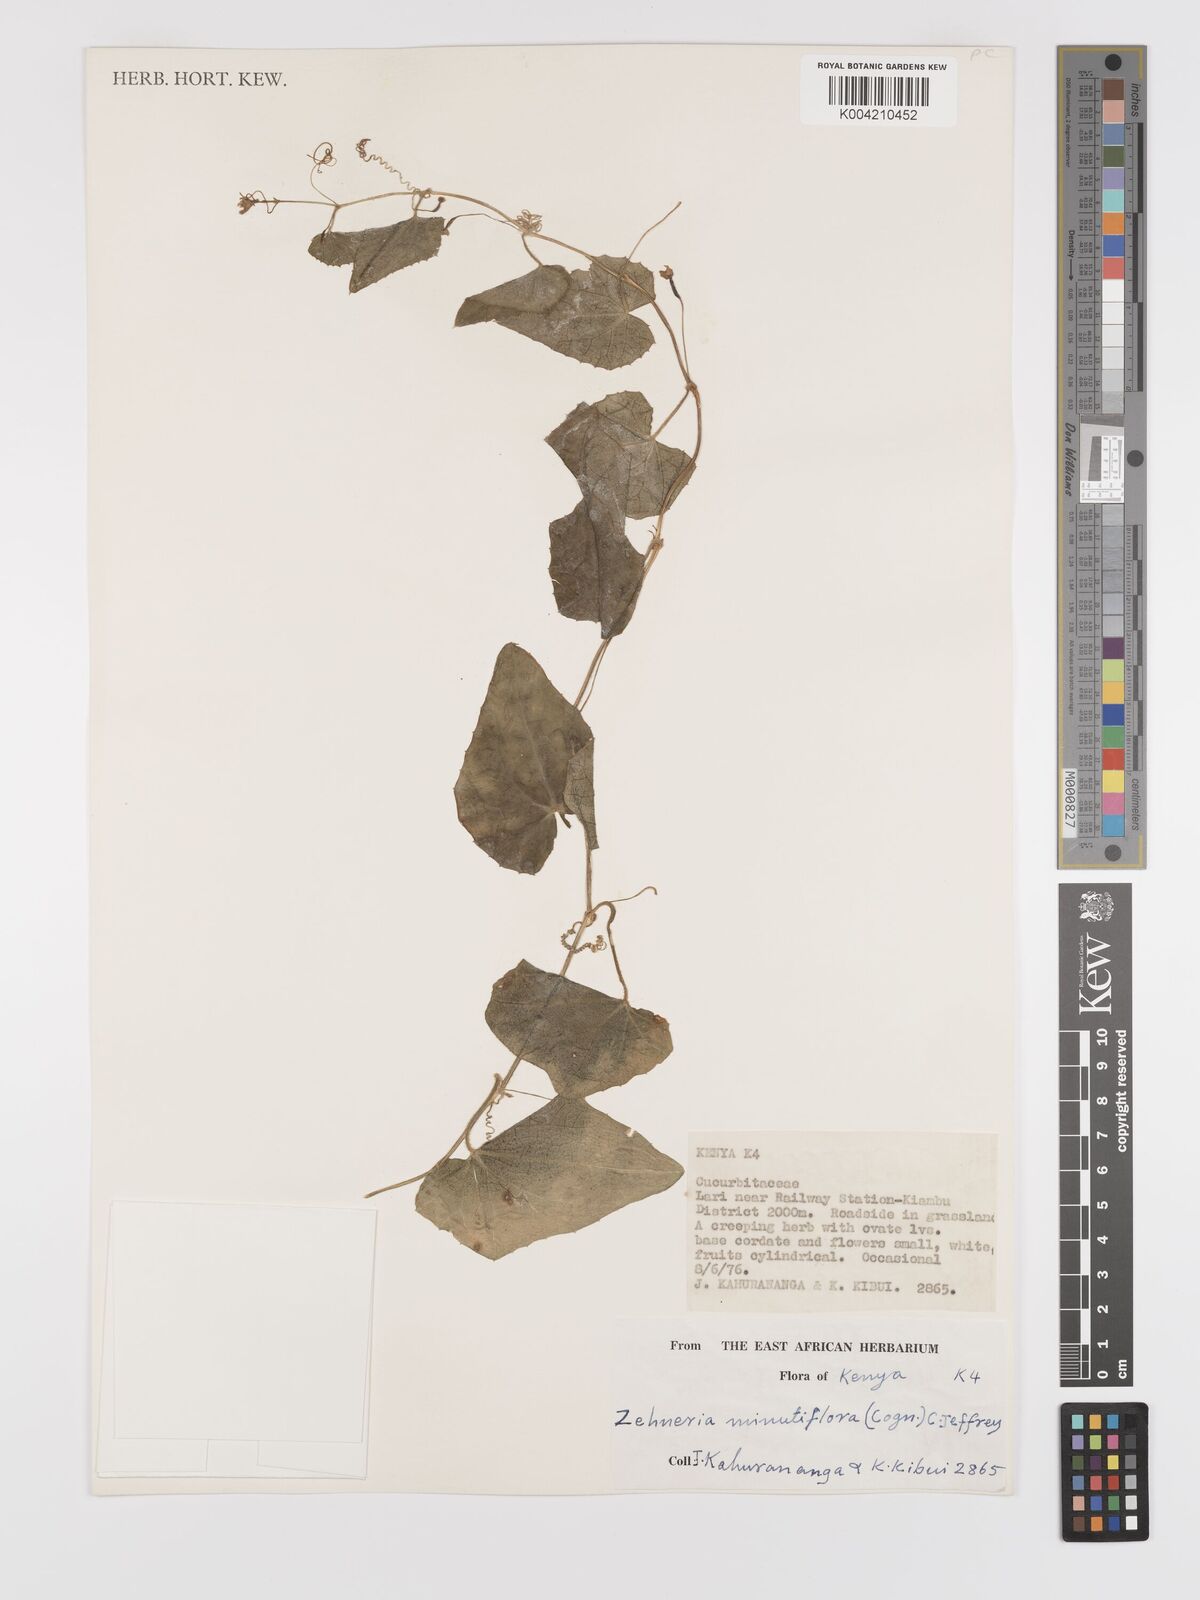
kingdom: Plantae
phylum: Tracheophyta
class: Magnoliopsida
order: Cucurbitales
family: Cucurbitaceae
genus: Zehneria
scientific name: Zehneria minutiflora
